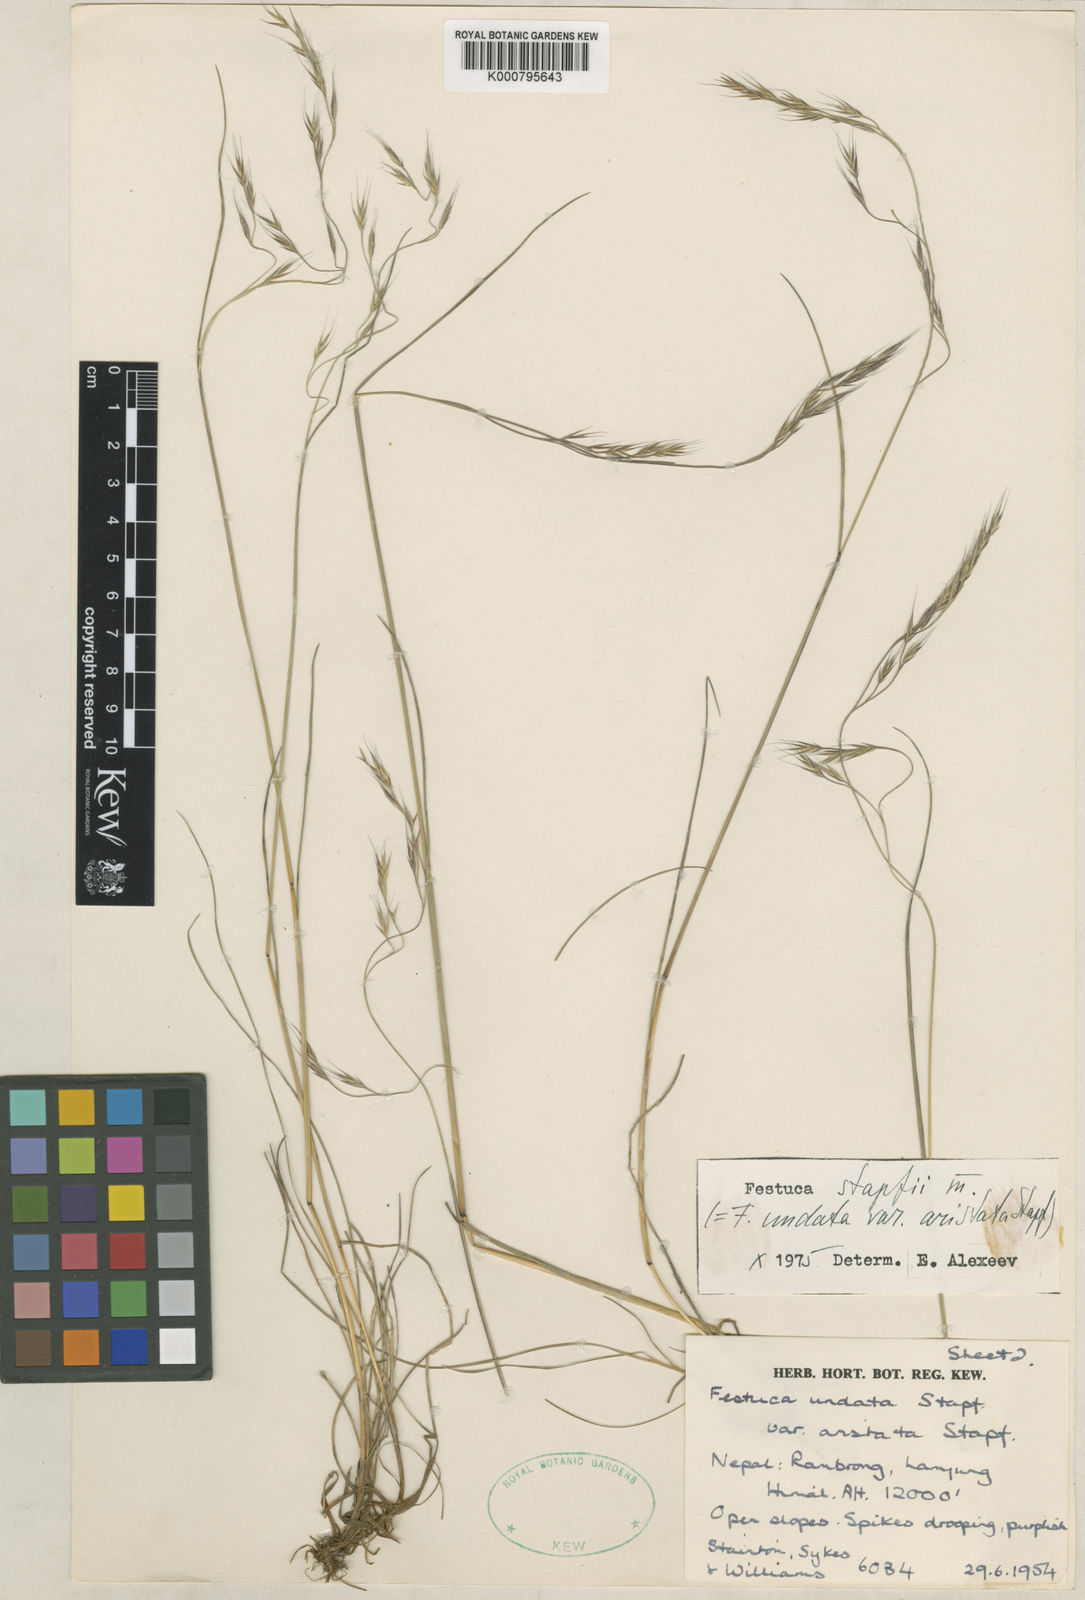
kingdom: Plantae
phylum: Tracheophyta
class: Liliopsida
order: Poales
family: Poaceae
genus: Festuca
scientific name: Festuca undata
